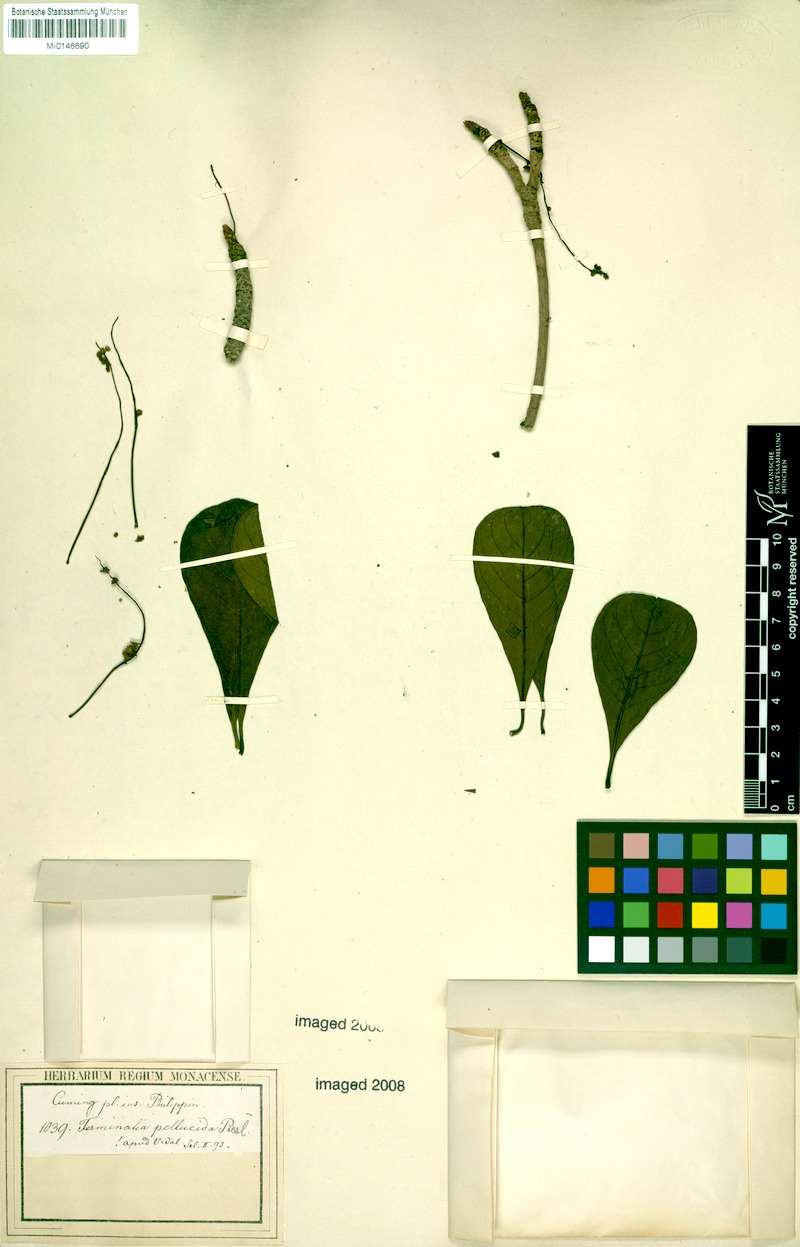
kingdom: Plantae
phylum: Tracheophyta
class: Magnoliopsida
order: Myrtales
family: Combretaceae
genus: Terminalia
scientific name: Terminalia pellucida
